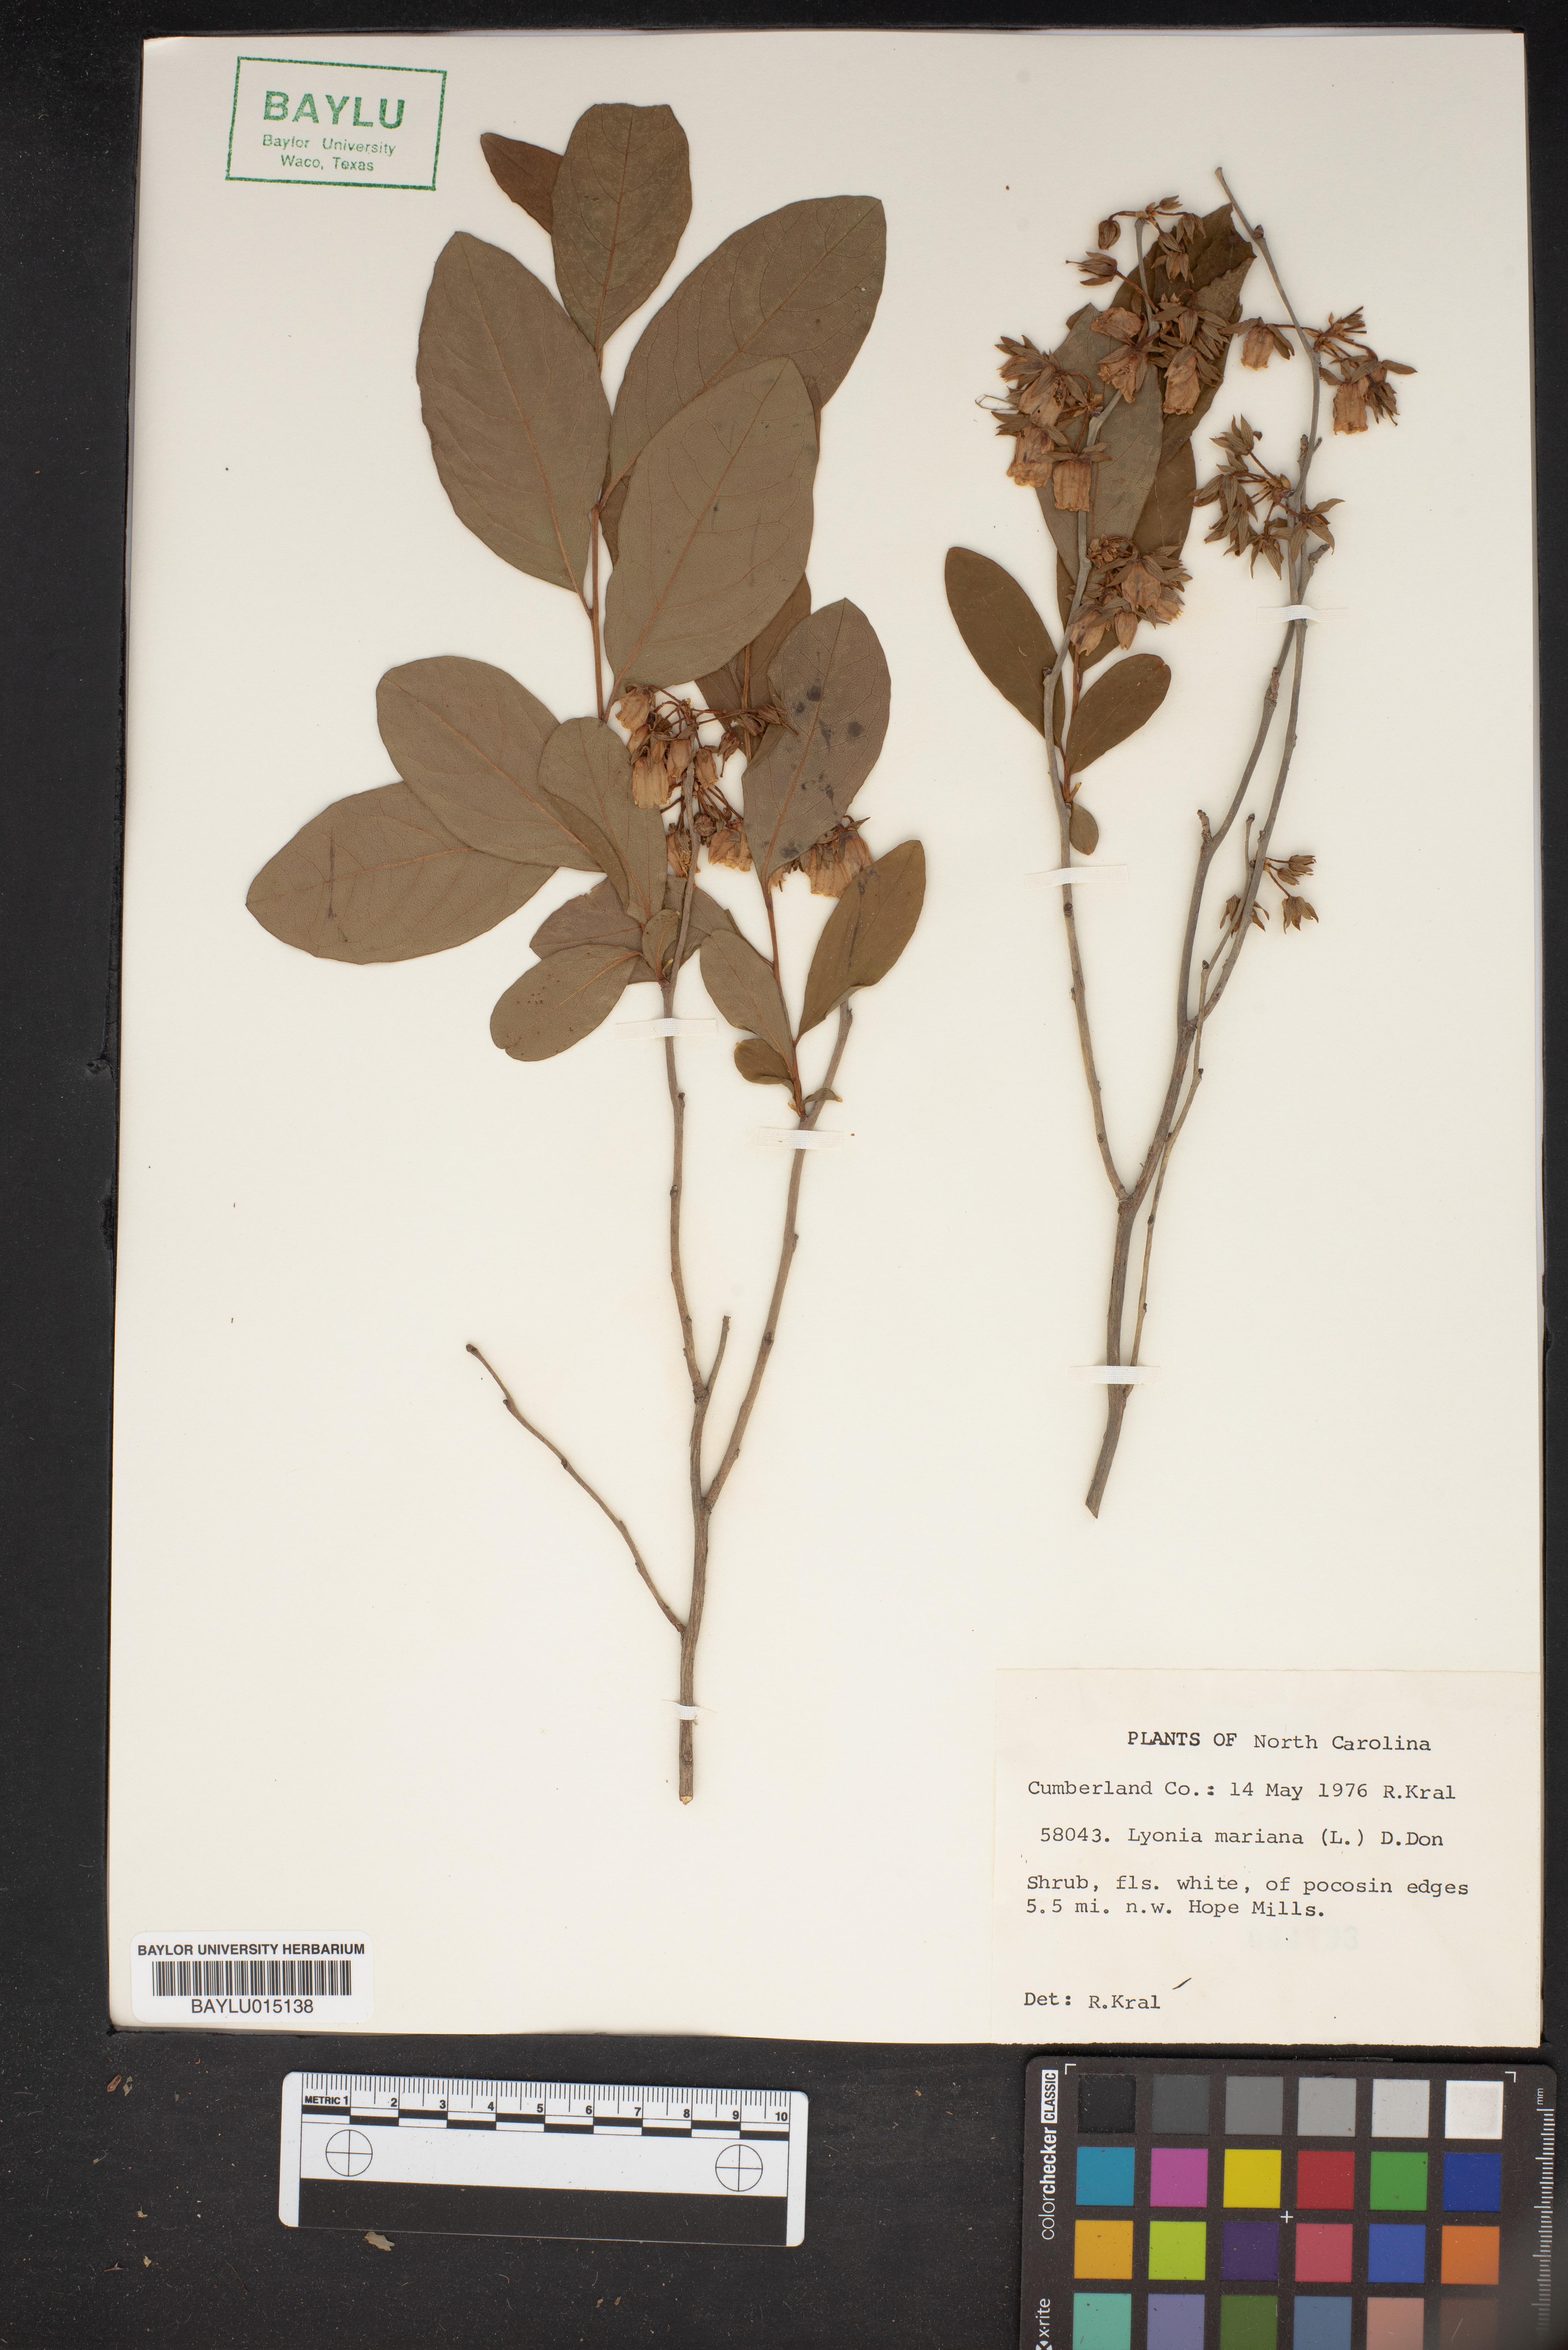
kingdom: Plantae
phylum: Tracheophyta
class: Magnoliopsida
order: Ericales
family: Ericaceae
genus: Lyonia
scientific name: Lyonia mariana
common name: Staggerbush
